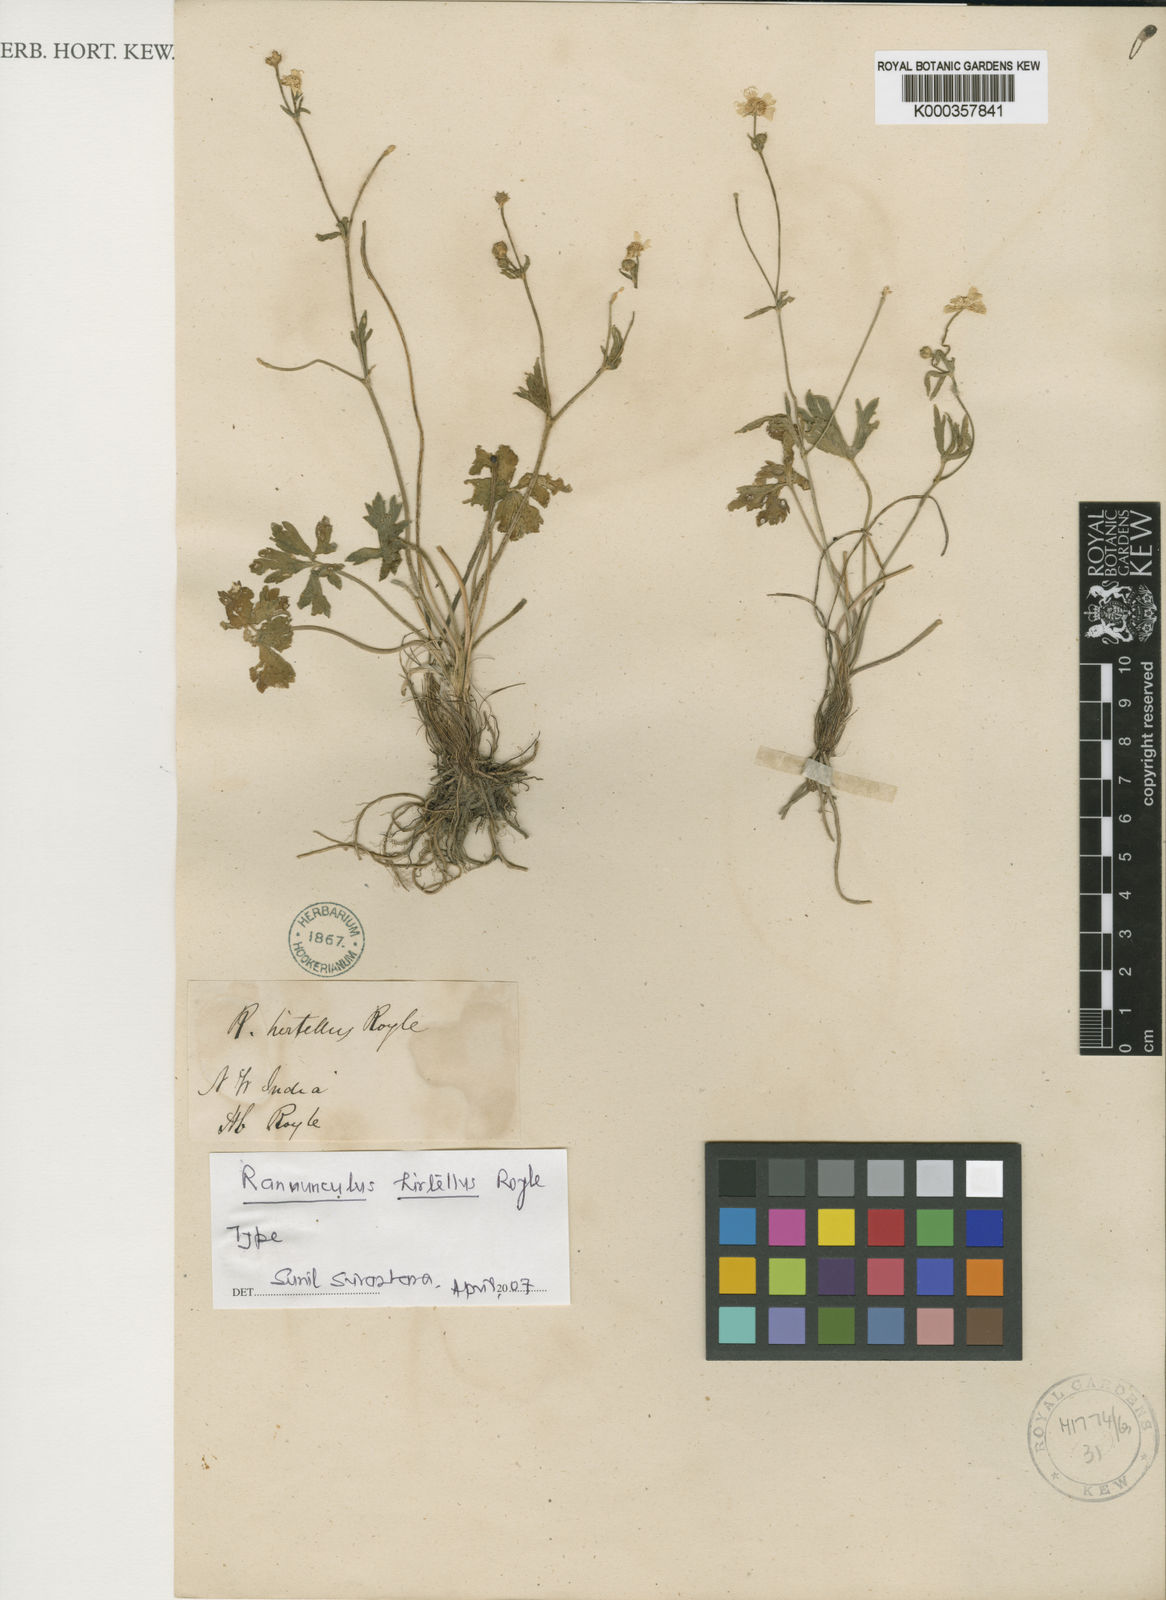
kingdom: Plantae
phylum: Tracheophyta
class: Magnoliopsida
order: Ranunculales
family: Ranunculaceae
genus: Ranunculus
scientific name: Ranunculus hirtellus
